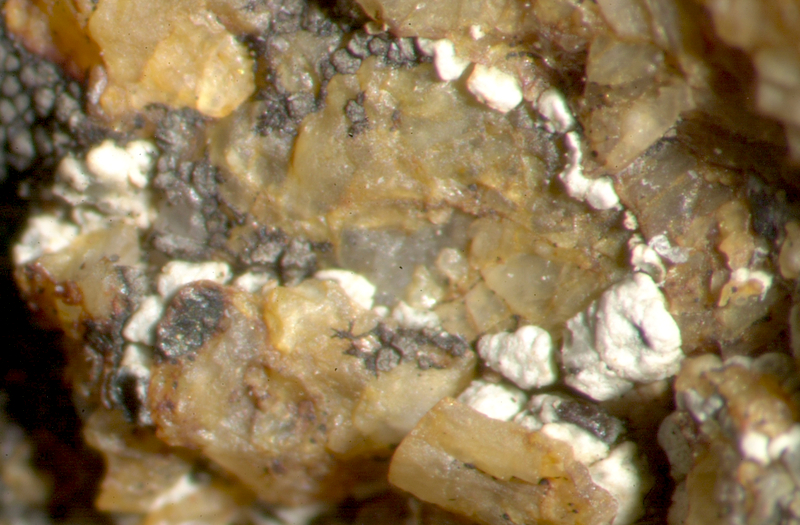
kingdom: Fungi
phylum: Ascomycota
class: Lecanoromycetes
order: Caliciales
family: Caliciaceae
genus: Buellia
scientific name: Buellia
